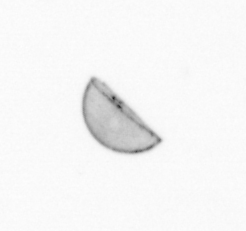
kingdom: Chromista
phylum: Ochrophyta
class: Bacillariophyceae
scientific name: Bacillariophyceae
